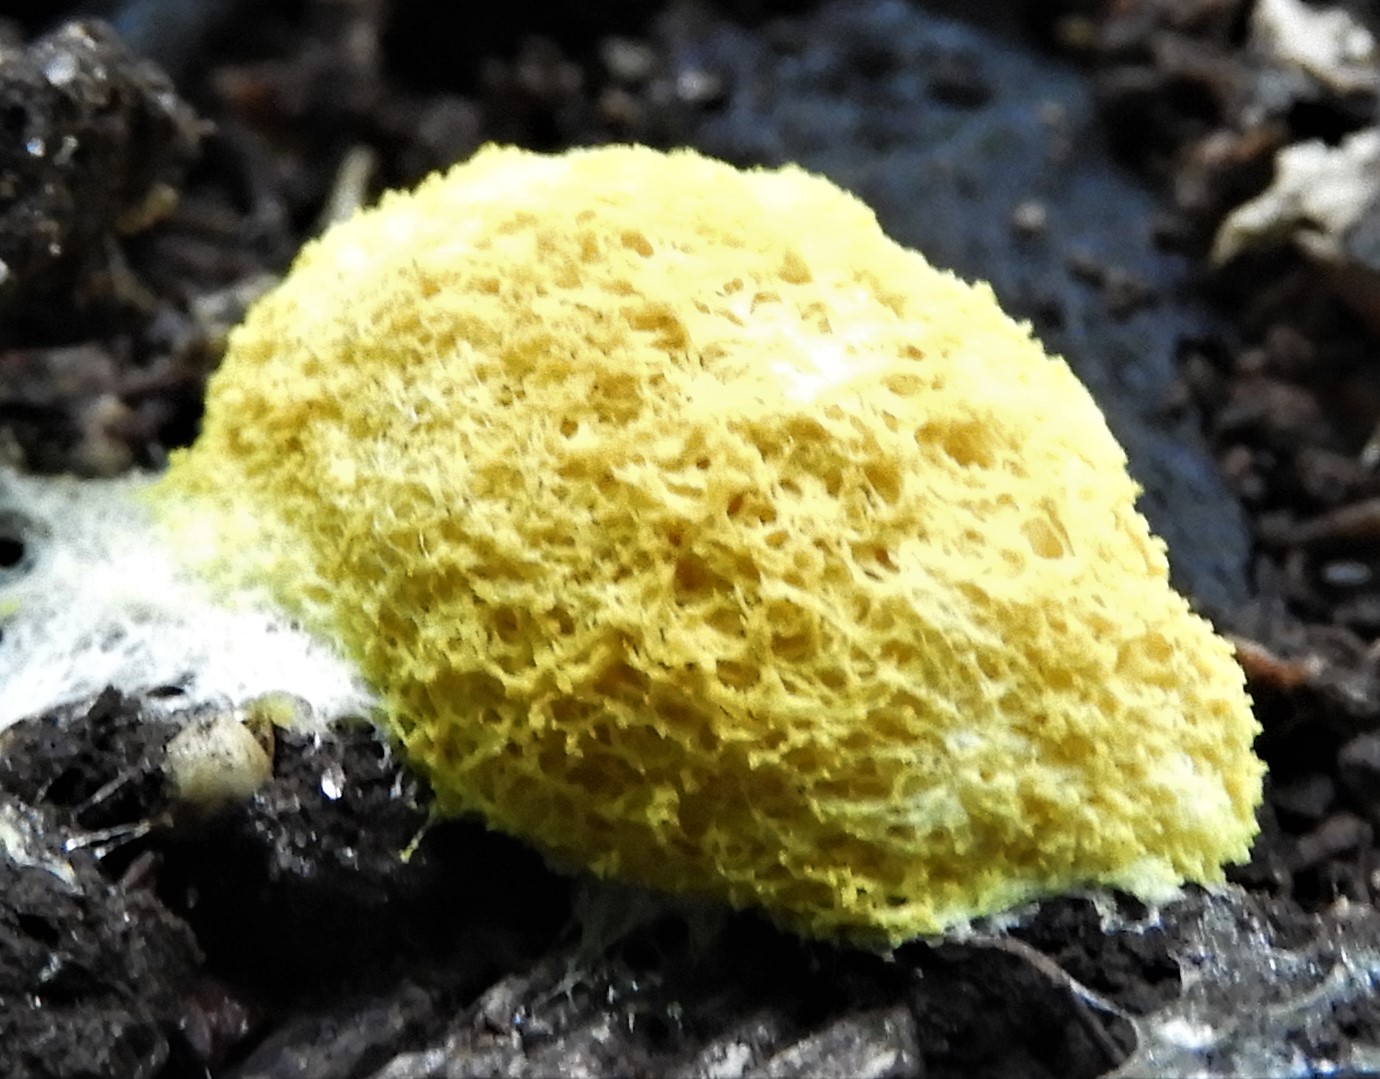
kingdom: Protozoa
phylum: Mycetozoa
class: Myxomycetes
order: Physarales
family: Physaraceae
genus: Fuligo
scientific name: Fuligo septica
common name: gul troldsmør
